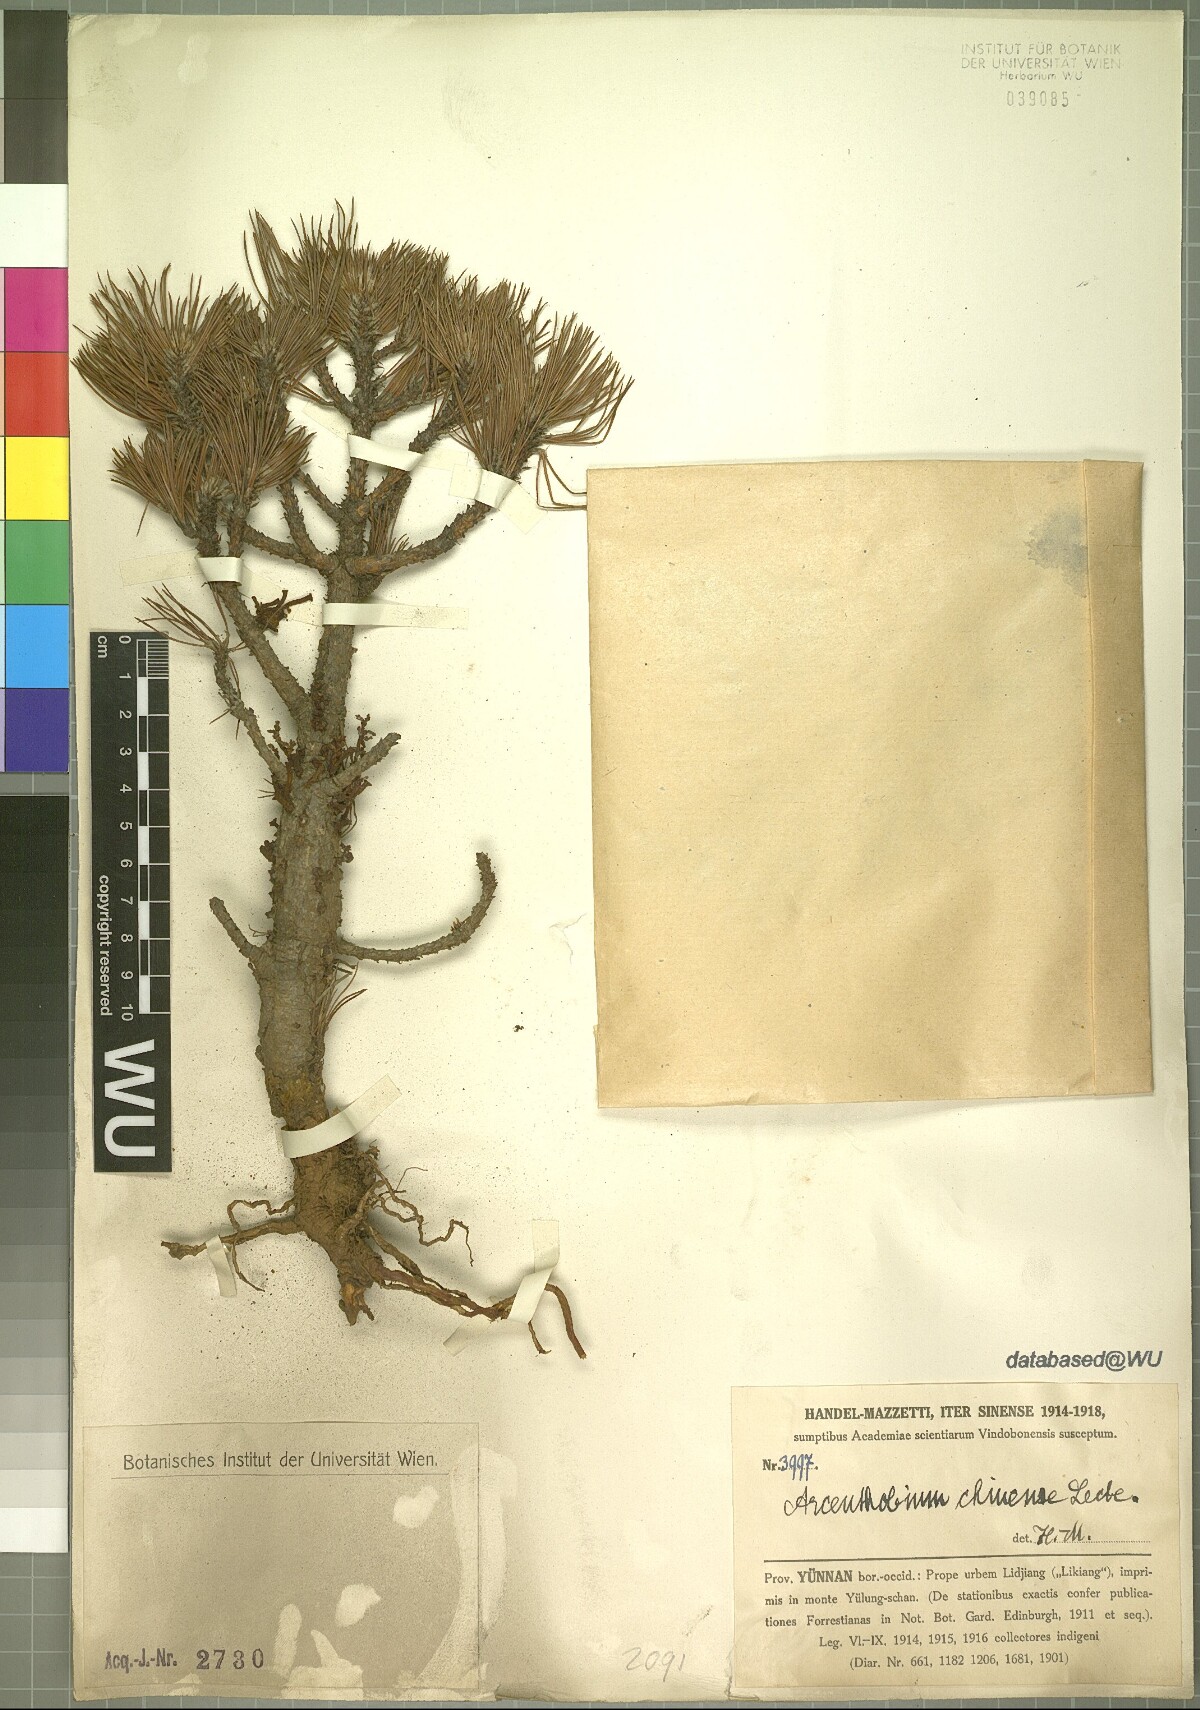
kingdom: Plantae
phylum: Tracheophyta
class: Magnoliopsida
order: Santalales
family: Viscaceae
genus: Arceuthobium
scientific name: Arceuthobium chinense
